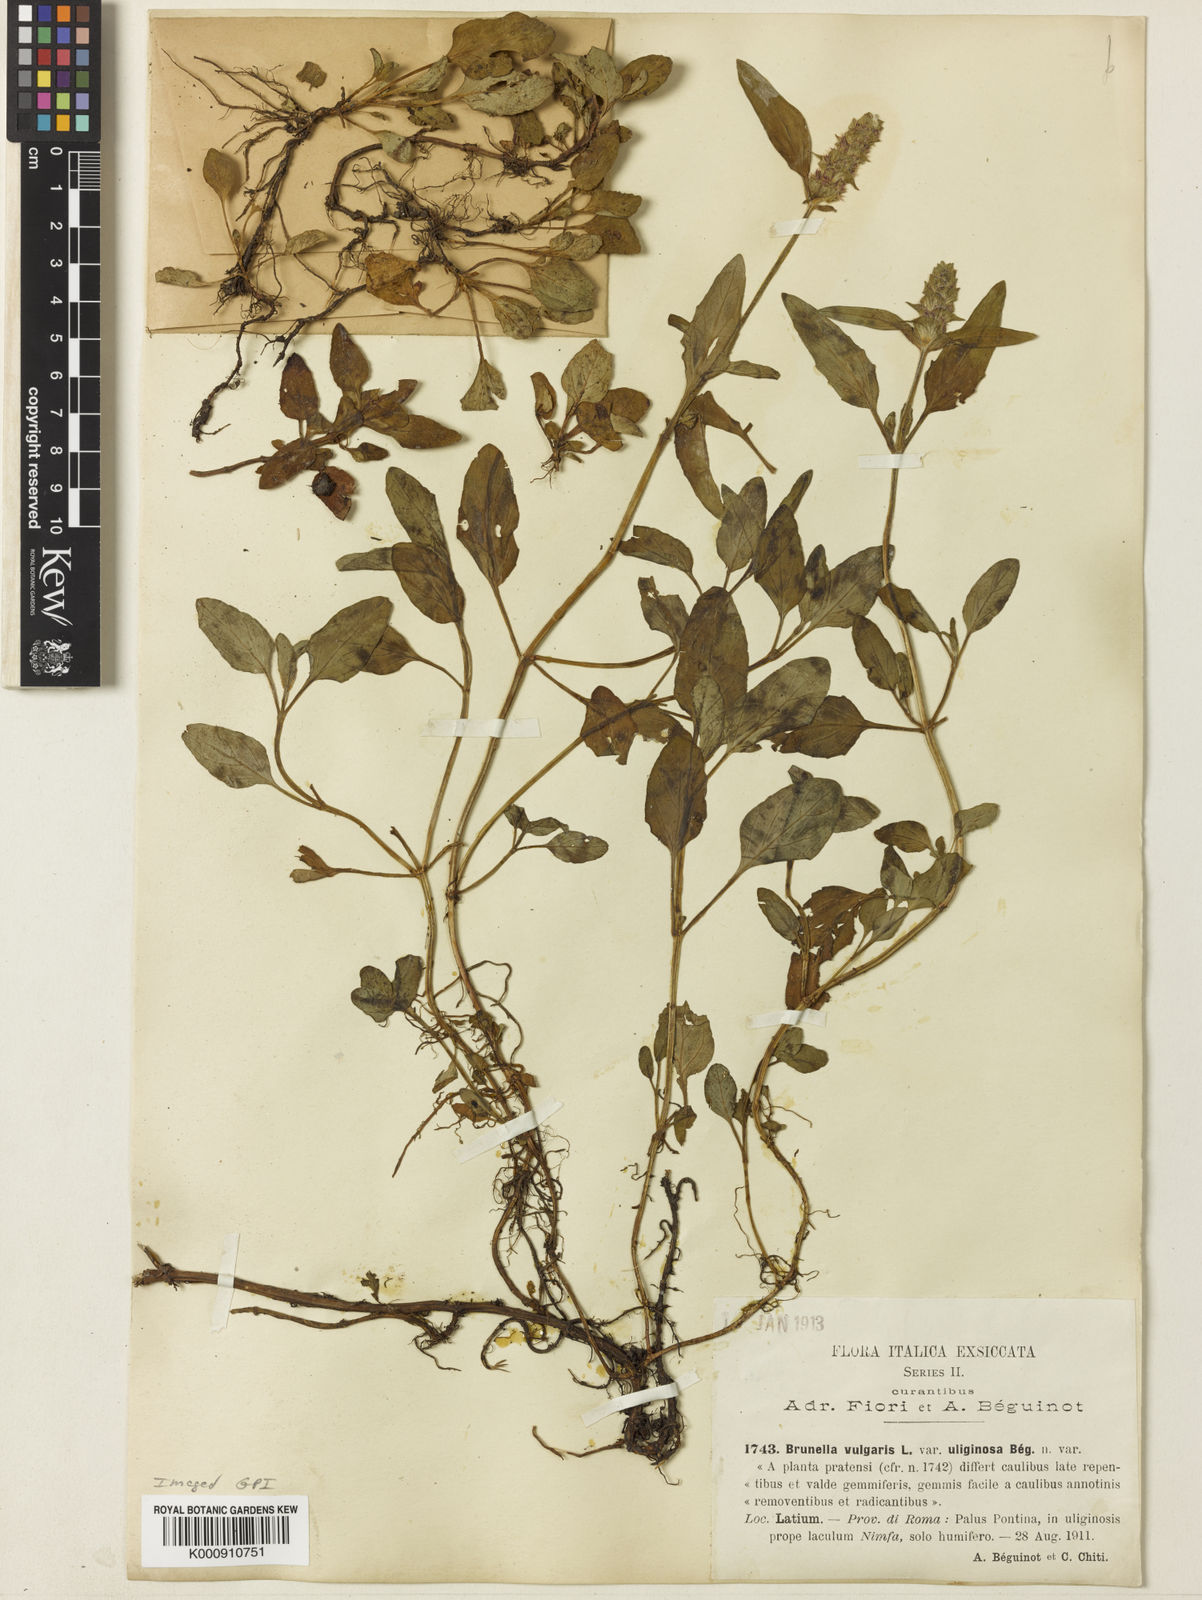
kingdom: Plantae
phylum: Tracheophyta
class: Magnoliopsida
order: Lamiales
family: Lamiaceae
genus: Prunella
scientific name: Prunella vulgaris
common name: Heal-all
